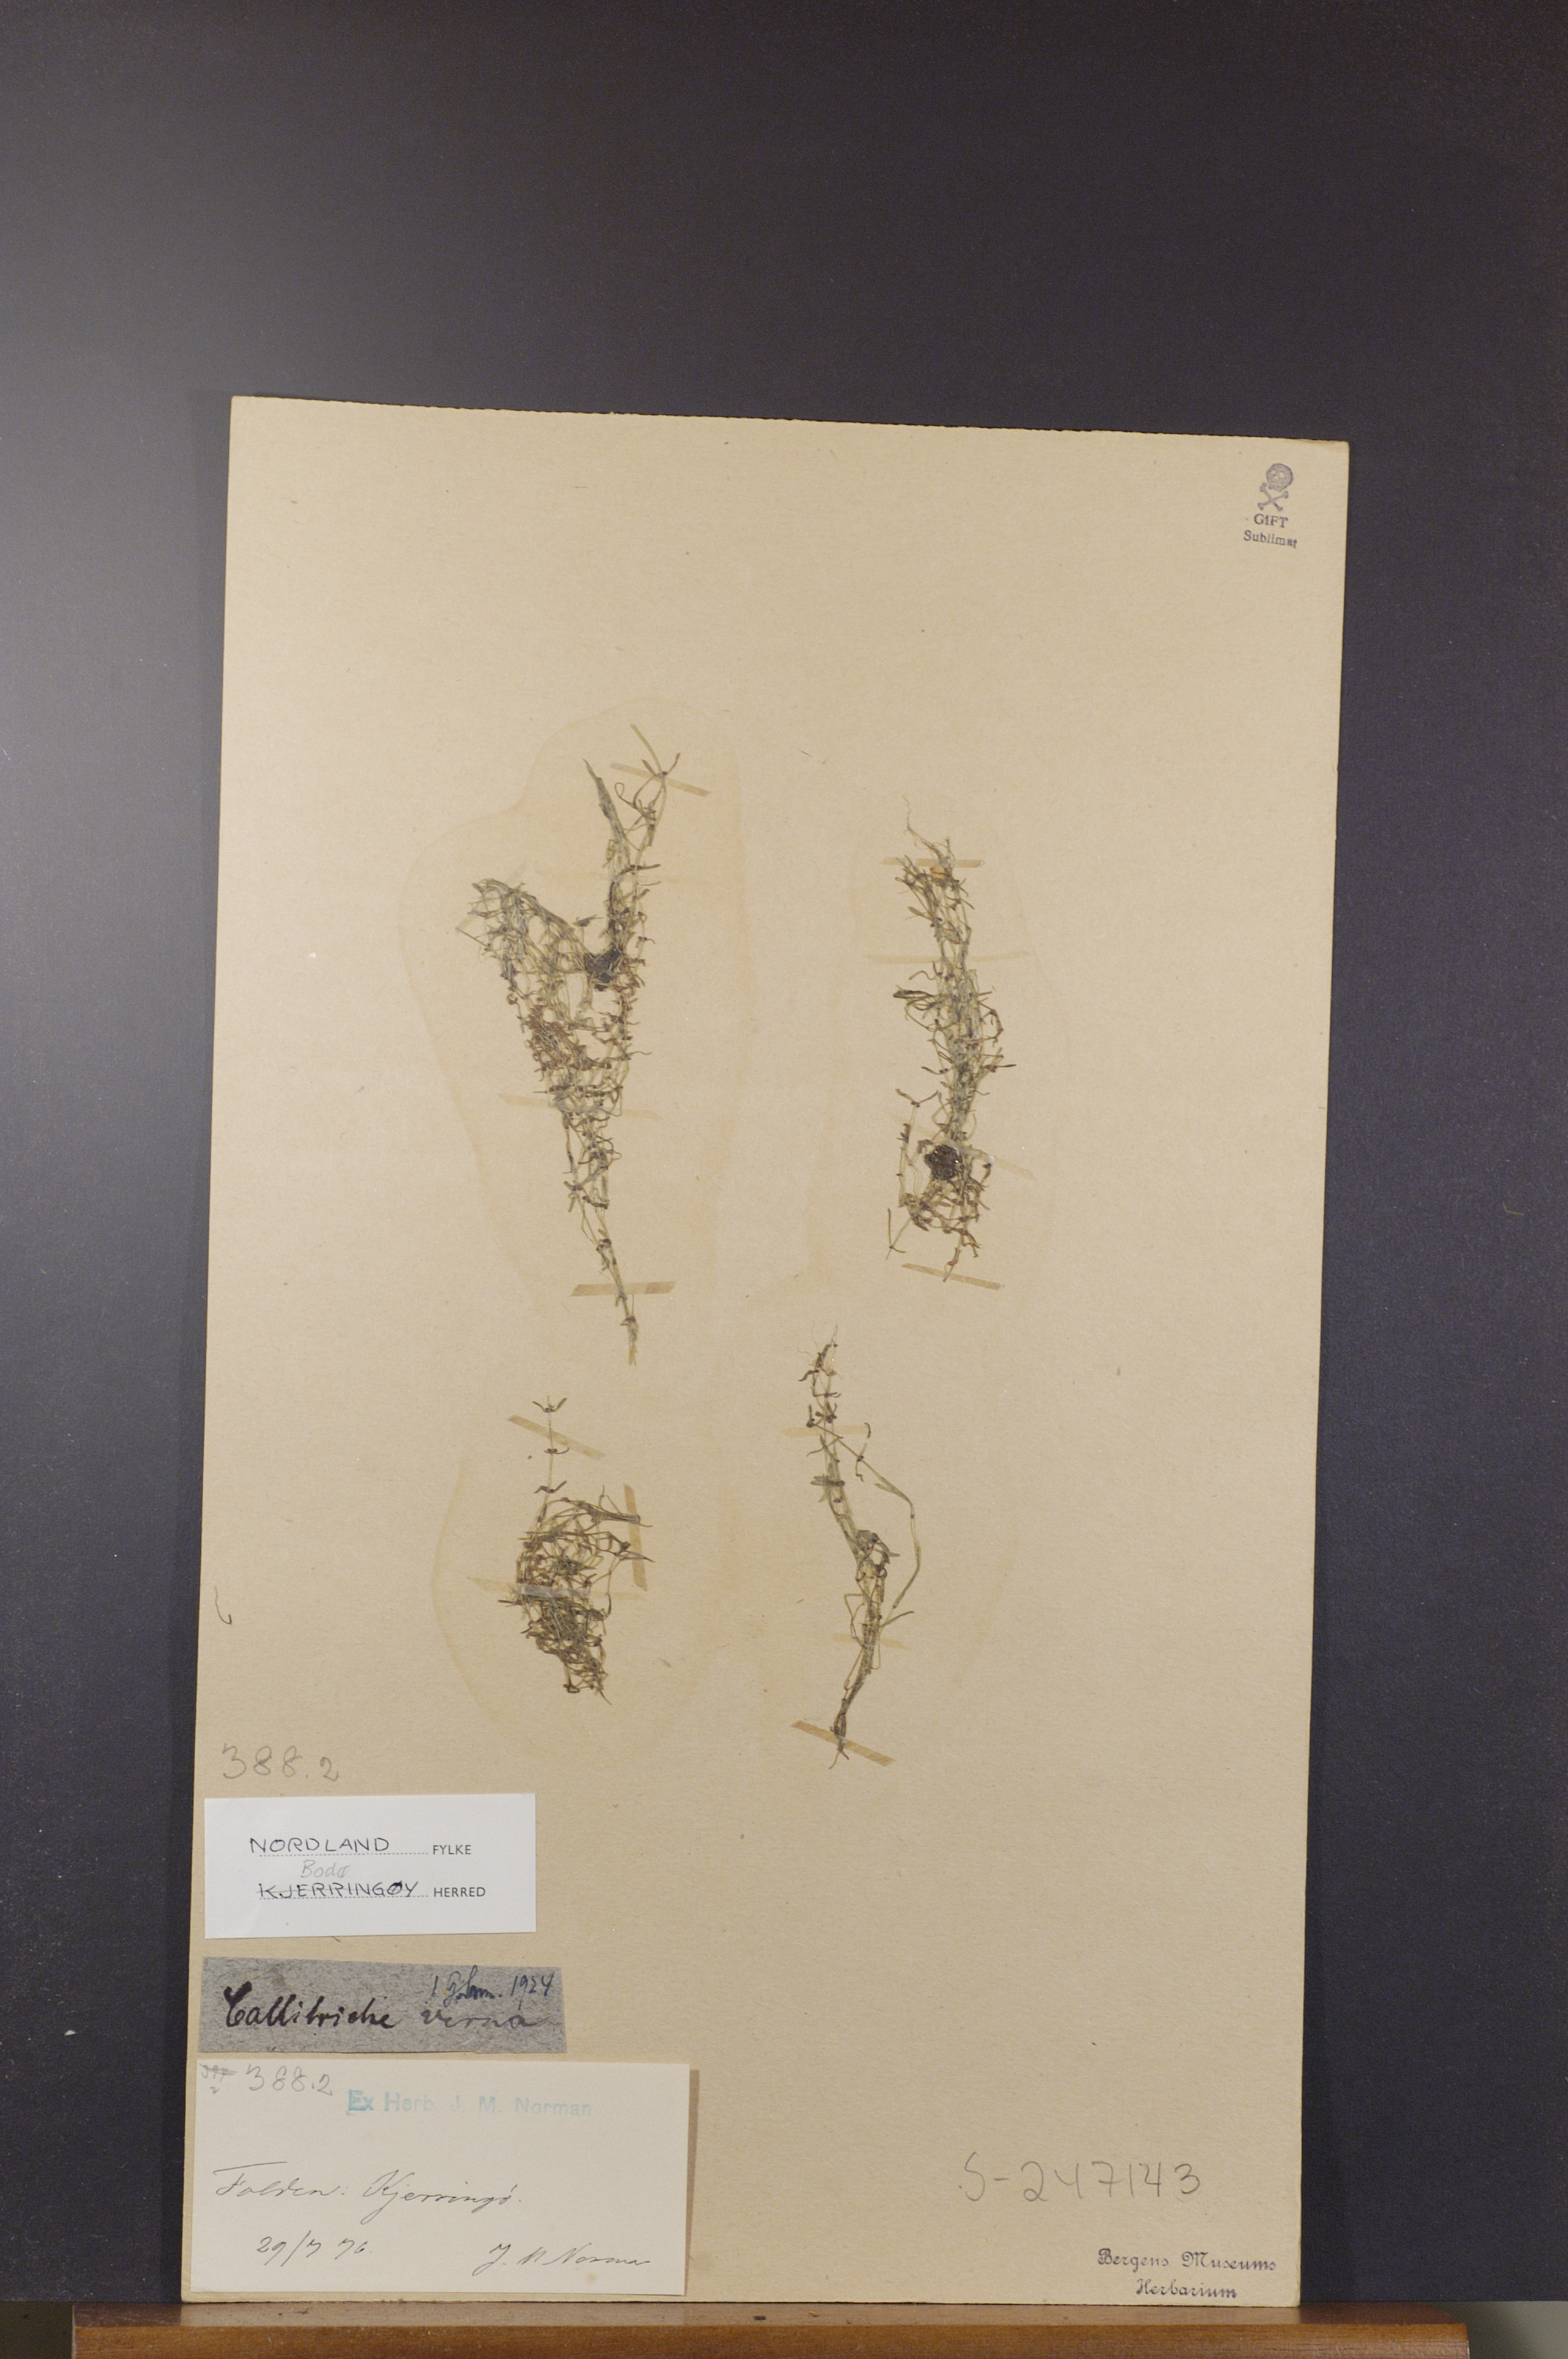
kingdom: Plantae
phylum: Tracheophyta
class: Magnoliopsida
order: Lamiales
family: Plantaginaceae
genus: Callitriche
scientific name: Callitriche palustris
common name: Spring water-starwort
